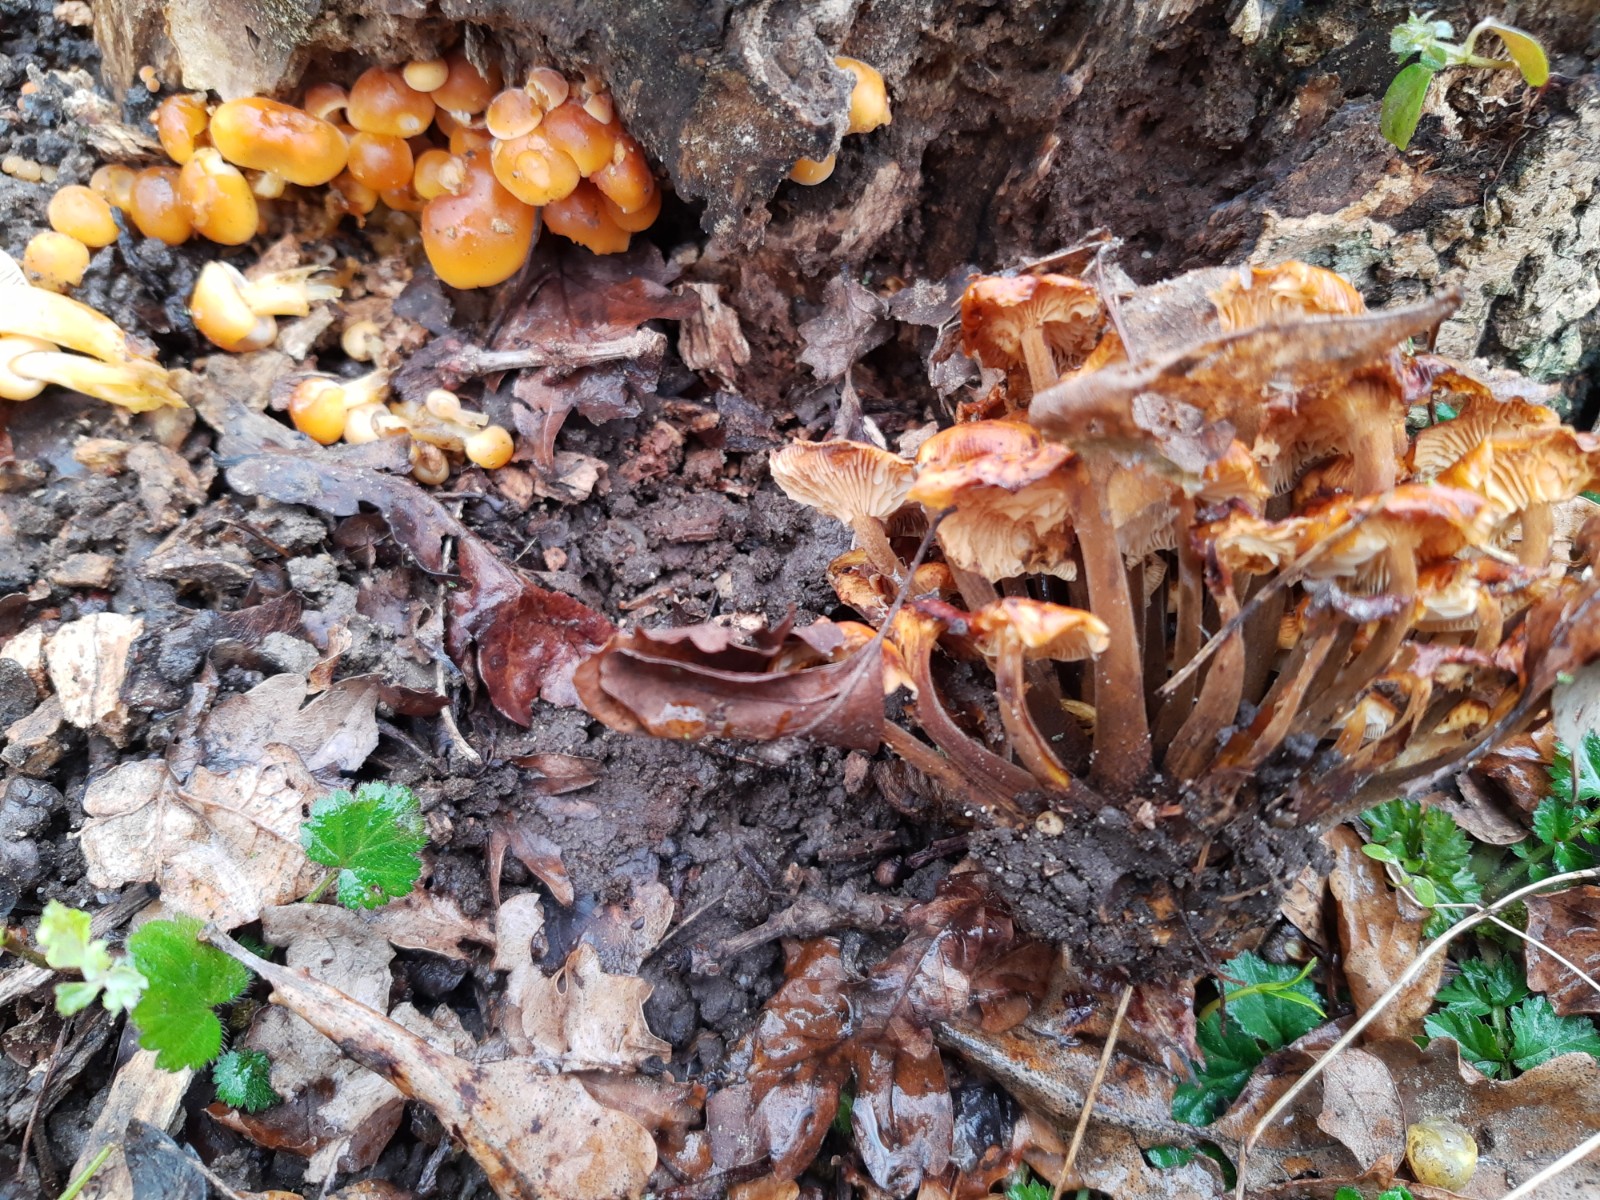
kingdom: Fungi
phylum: Basidiomycota
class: Agaricomycetes
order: Agaricales
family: Physalacriaceae
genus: Flammulina
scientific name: Flammulina
